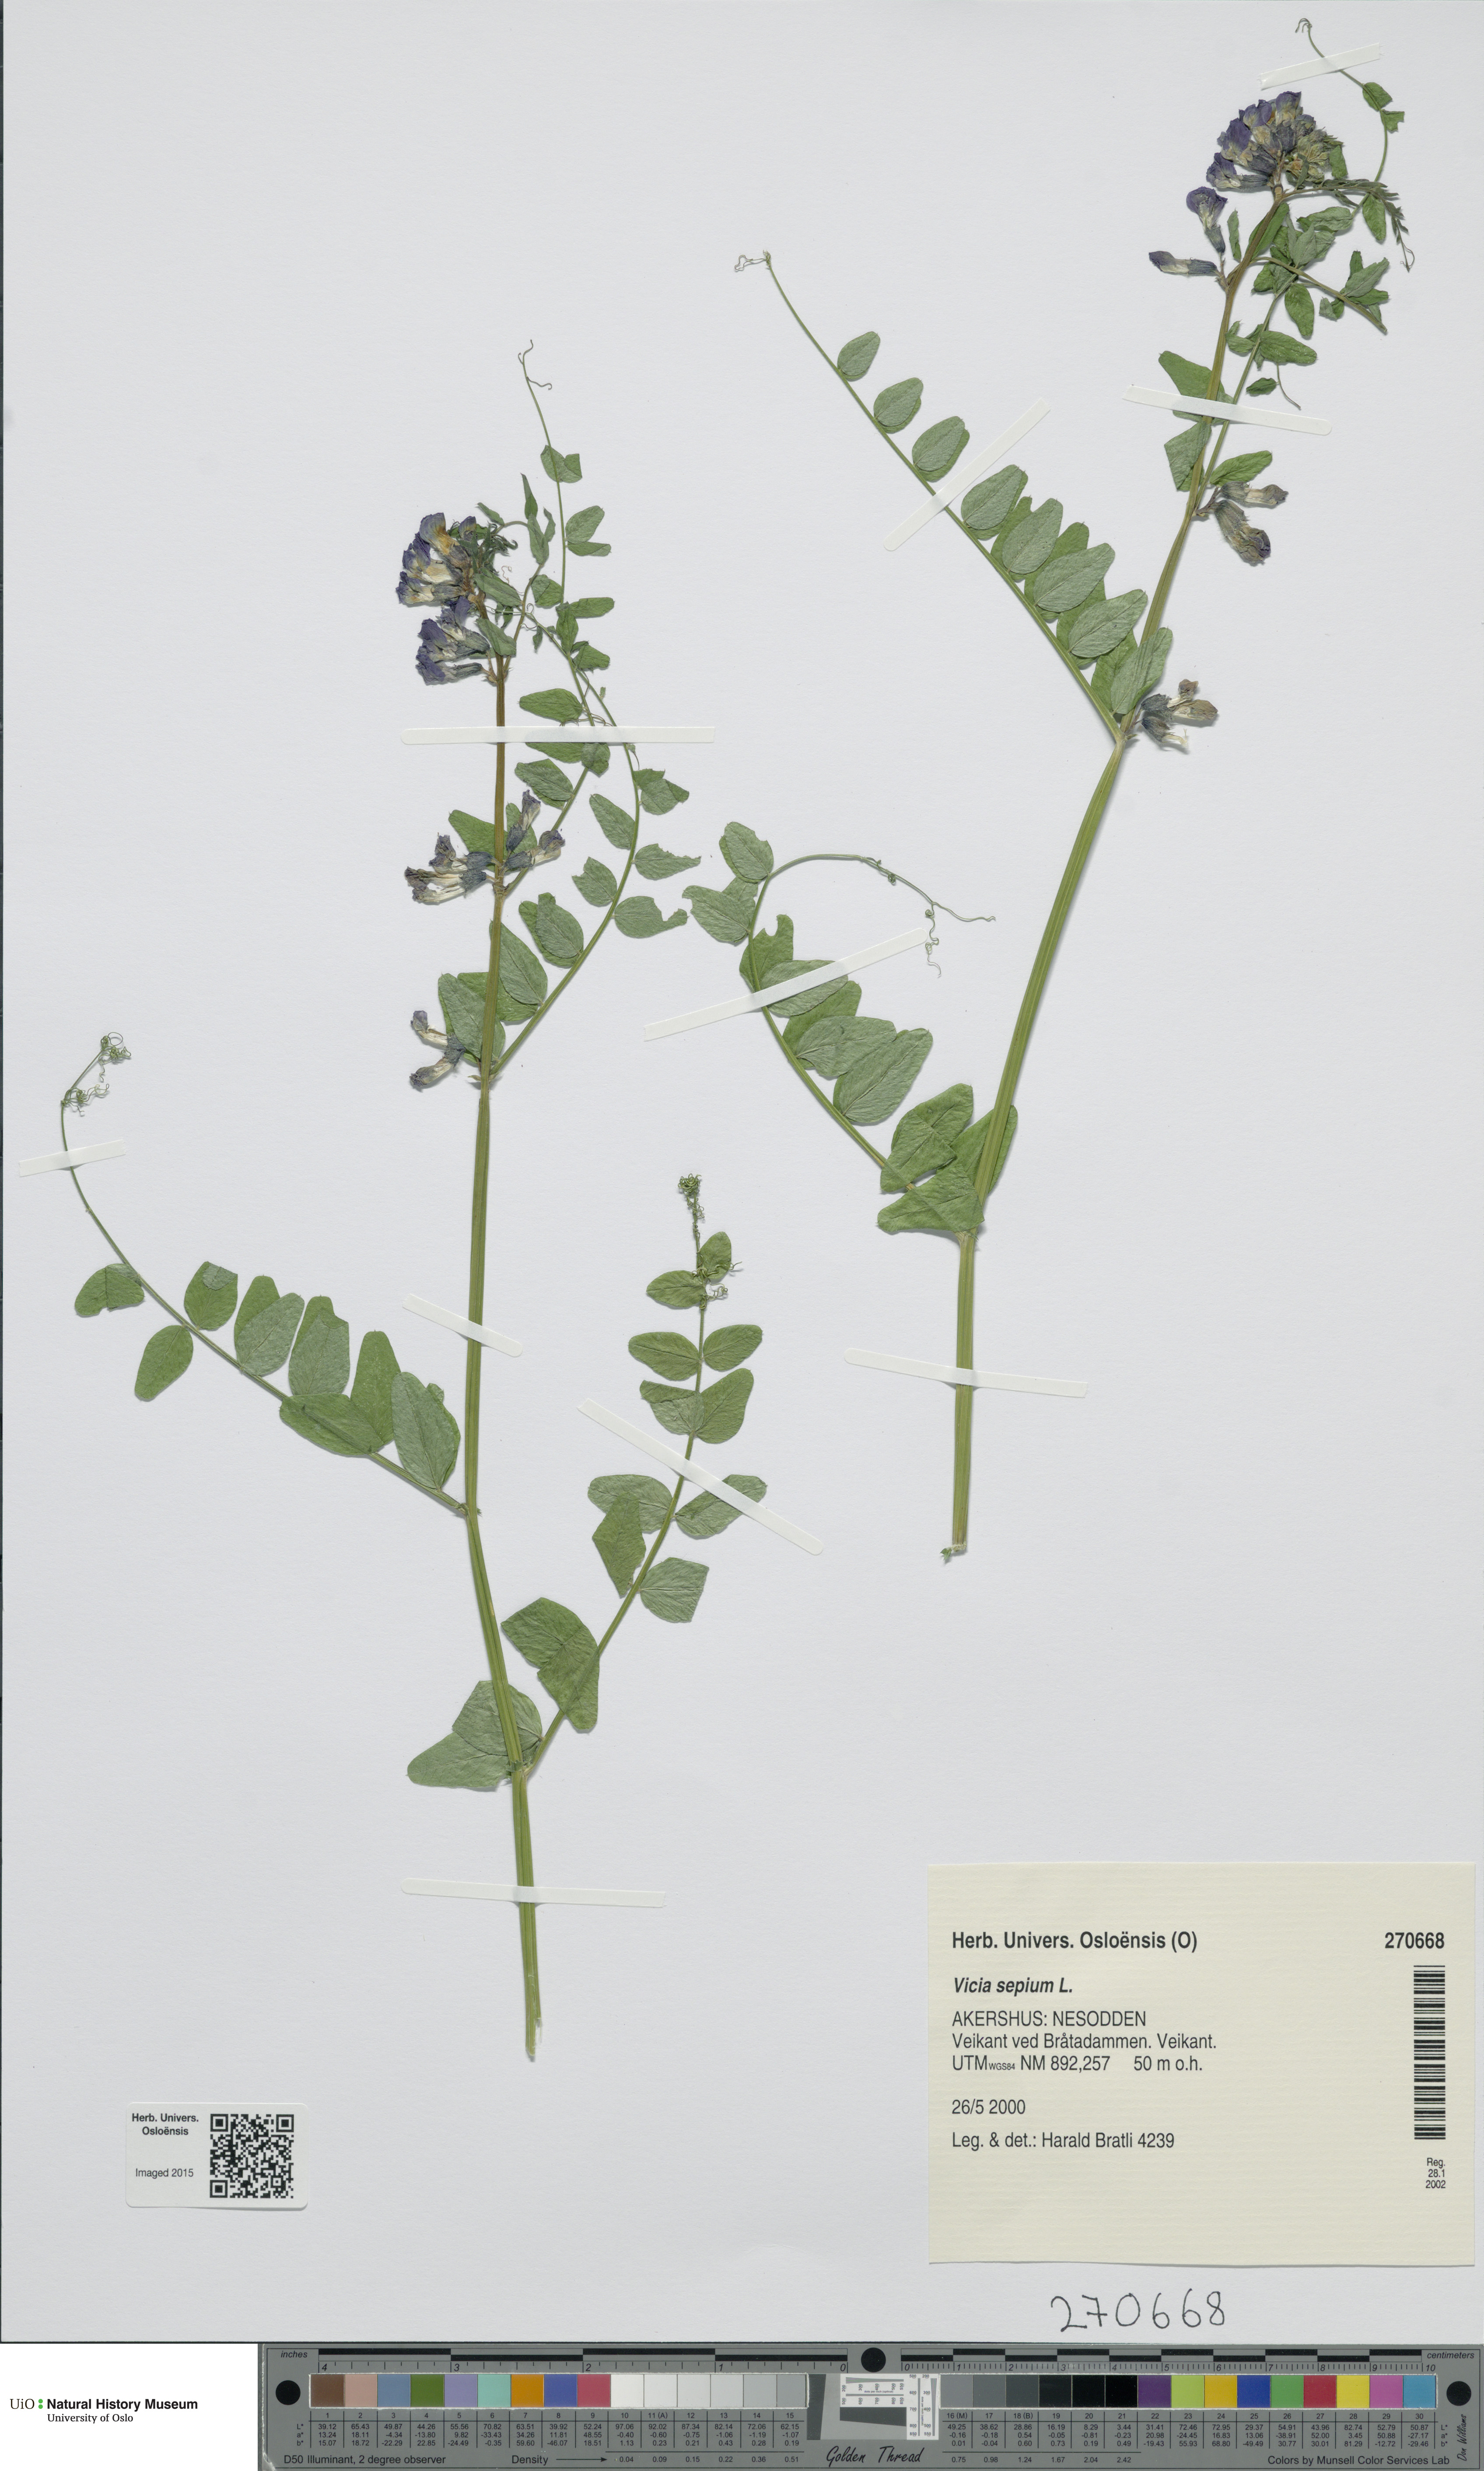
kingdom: Plantae
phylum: Tracheophyta
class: Magnoliopsida
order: Fabales
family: Fabaceae
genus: Vicia
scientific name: Vicia sepium
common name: Bush vetch
